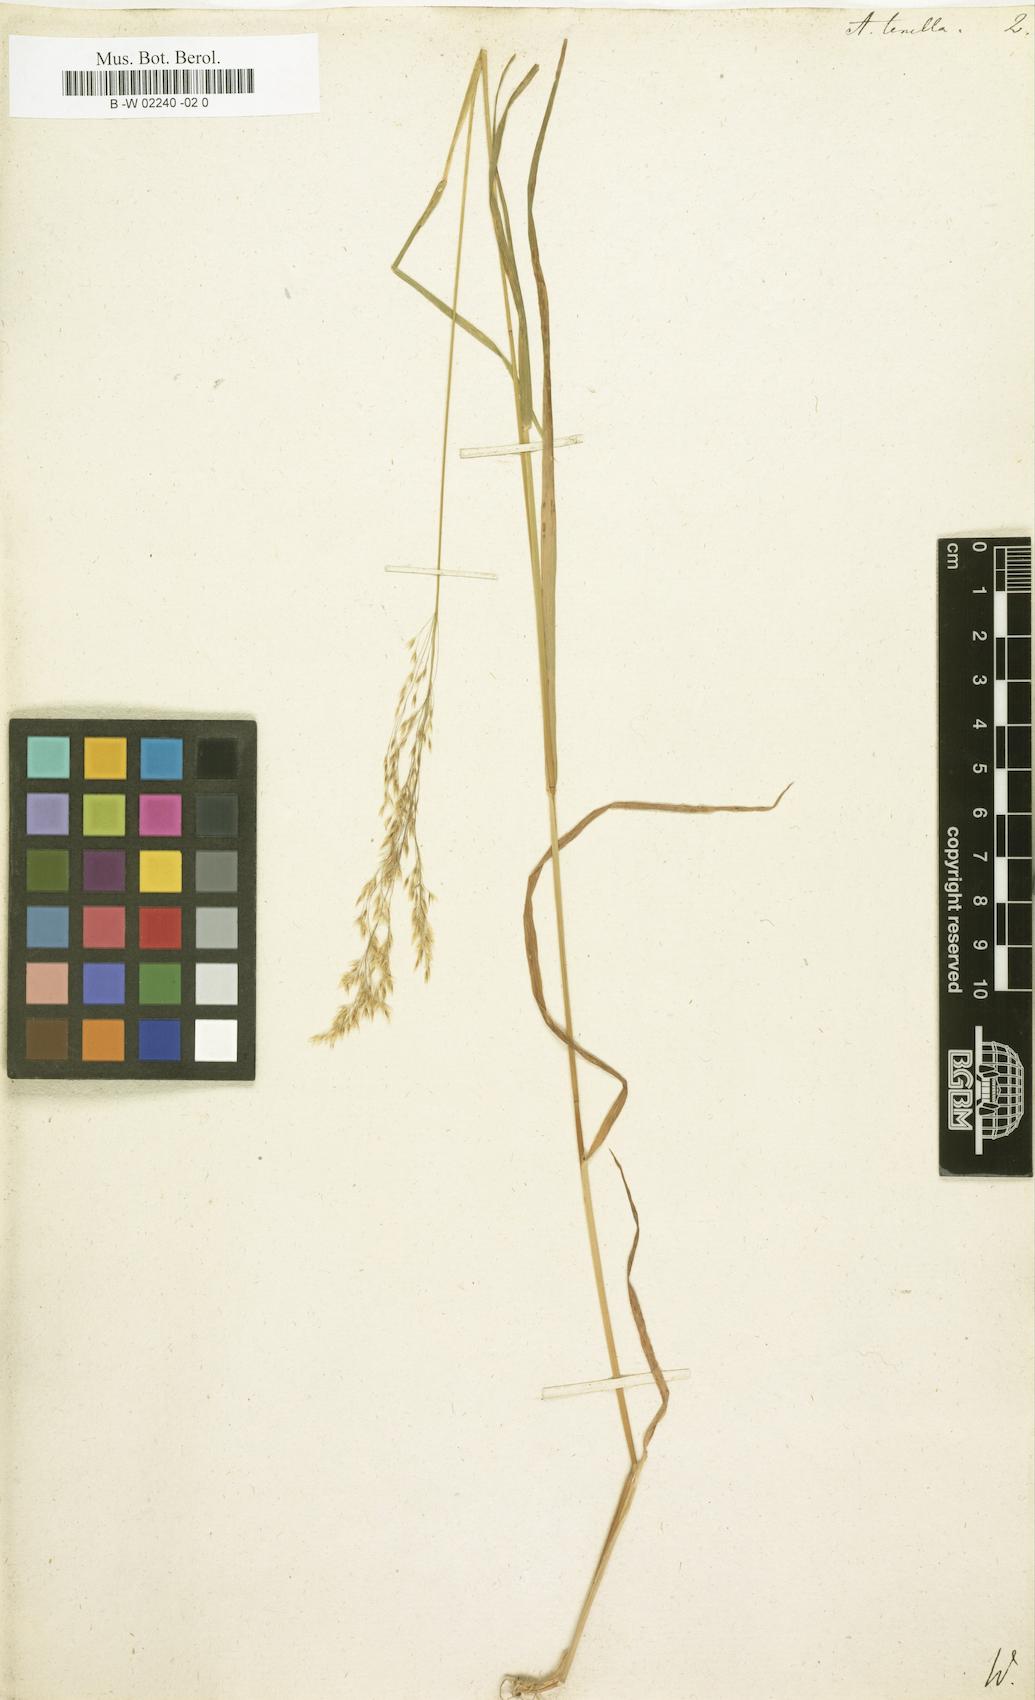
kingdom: Plantae
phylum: Tracheophyta
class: Liliopsida
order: Poales
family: Poaceae
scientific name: Poaceae
